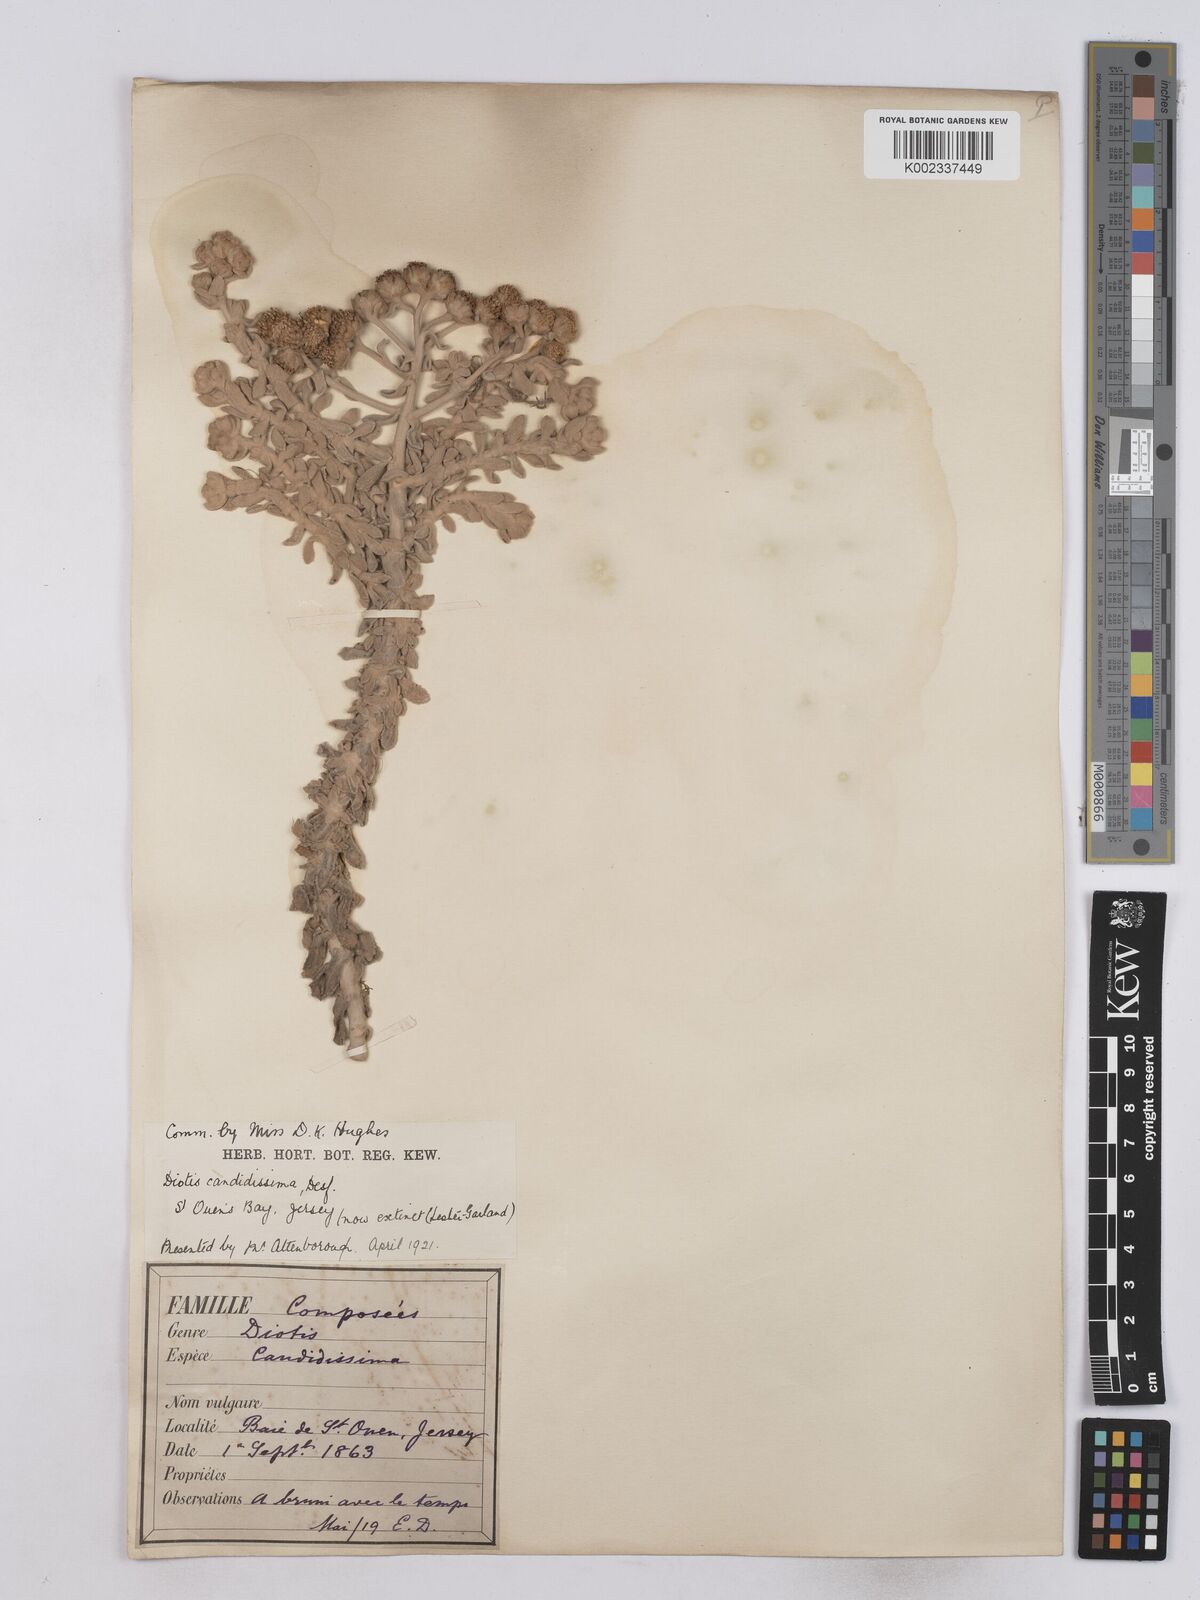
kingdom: Plantae
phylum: Tracheophyta
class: Magnoliopsida
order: Asterales
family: Asteraceae
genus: Achillea
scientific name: Achillea maritima
